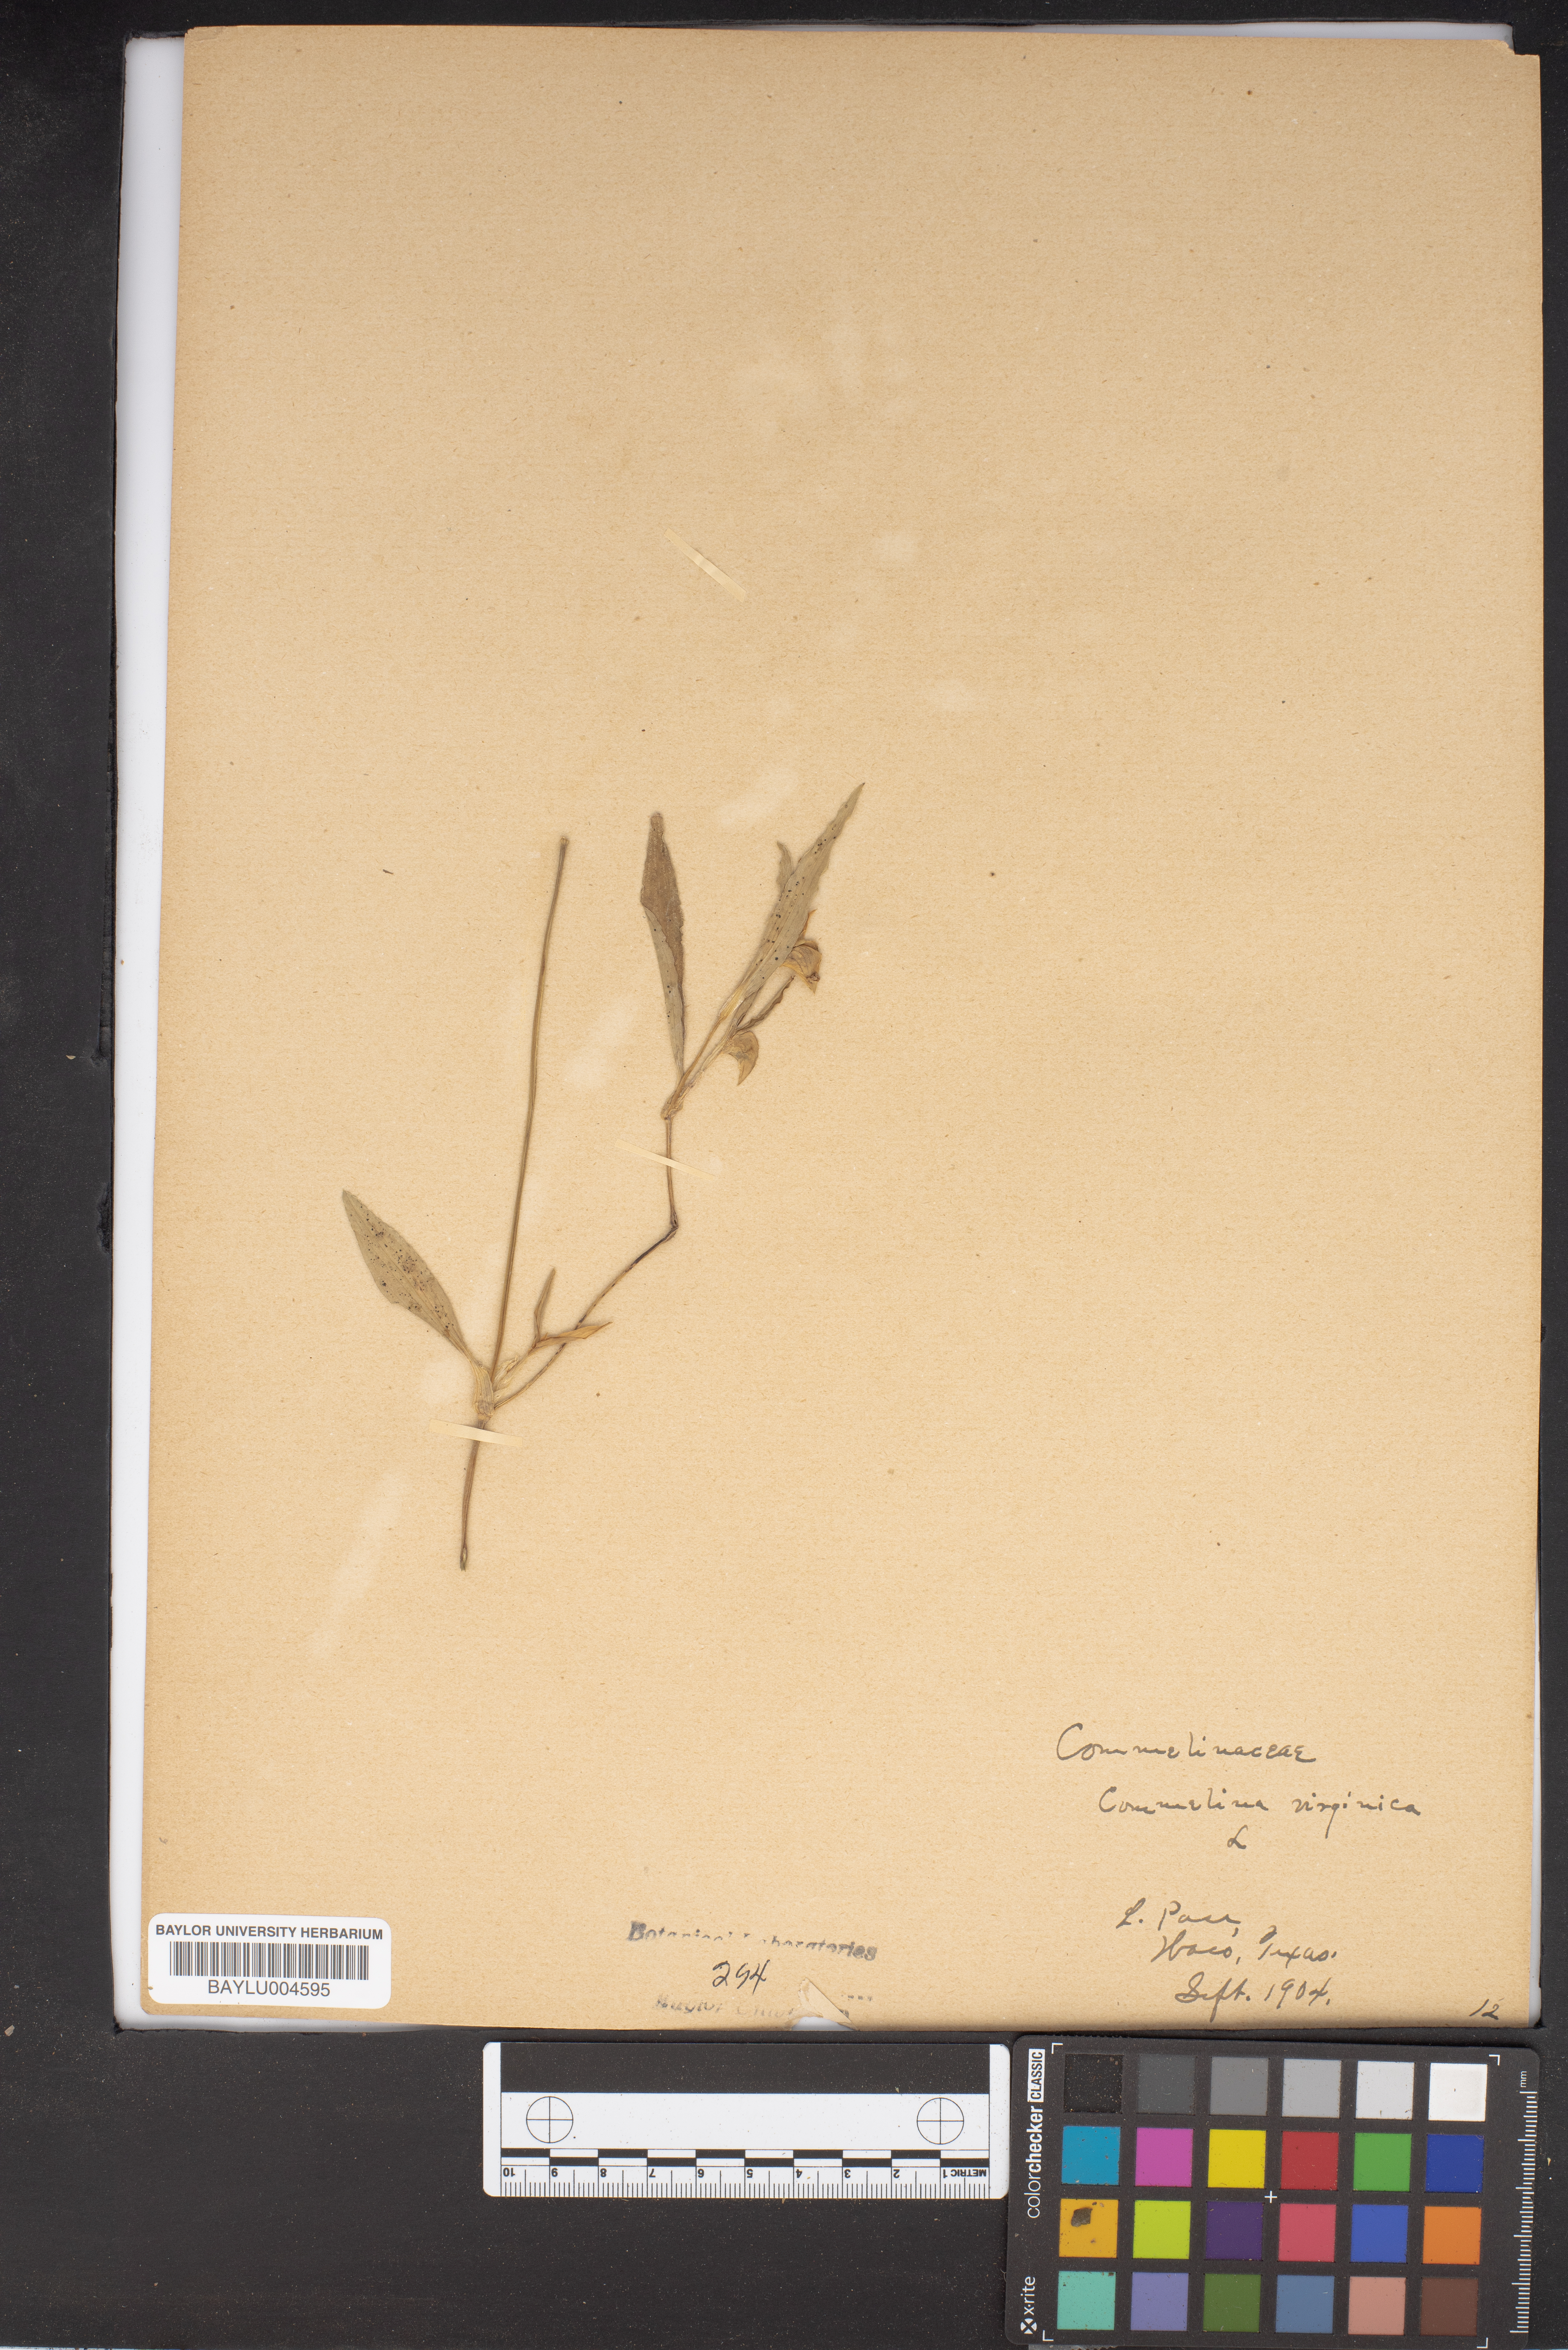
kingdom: Plantae
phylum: Tracheophyta
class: Liliopsida
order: Commelinales
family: Commelinaceae
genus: Commelina
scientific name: Commelina virginica
